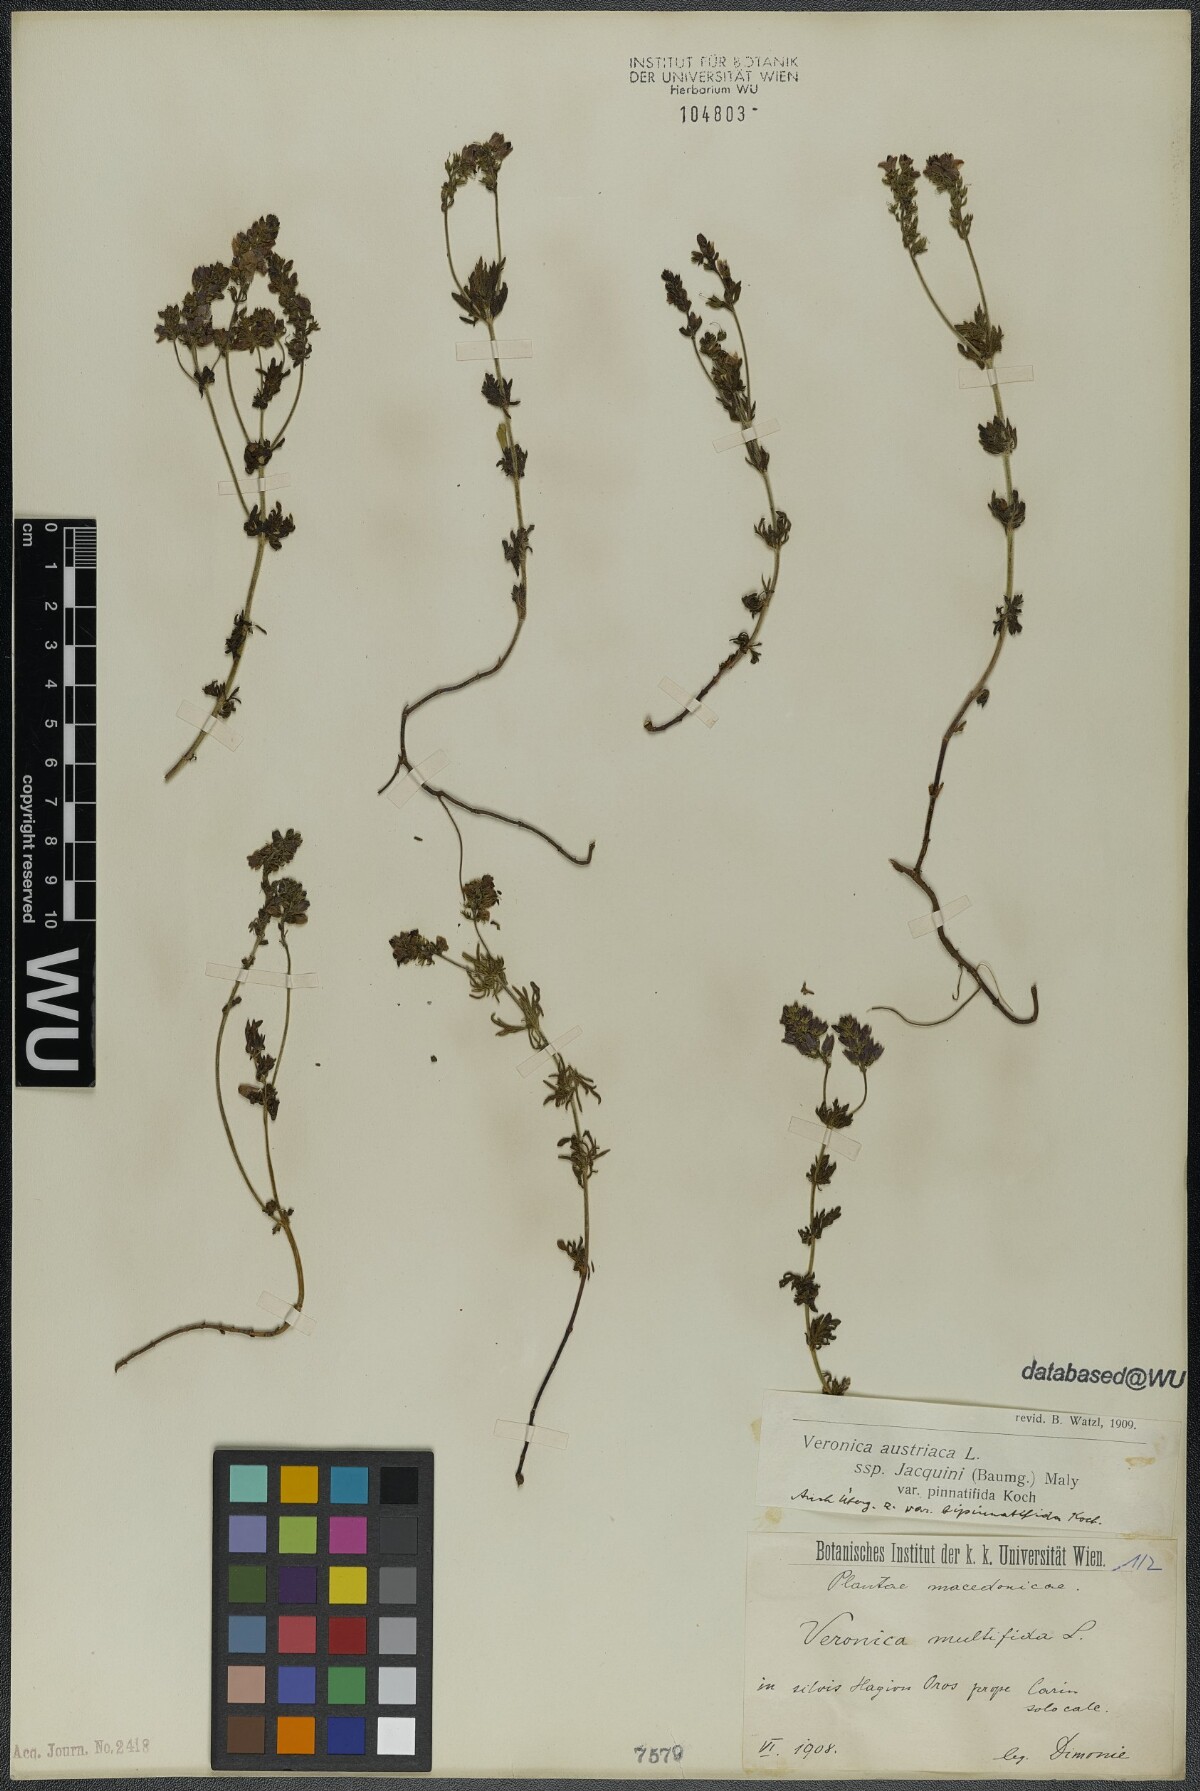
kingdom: Plantae
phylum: Tracheophyta
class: Magnoliopsida
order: Lamiales
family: Plantaginaceae
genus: Veronica
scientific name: Veronica austriaca
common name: Large speedwell
